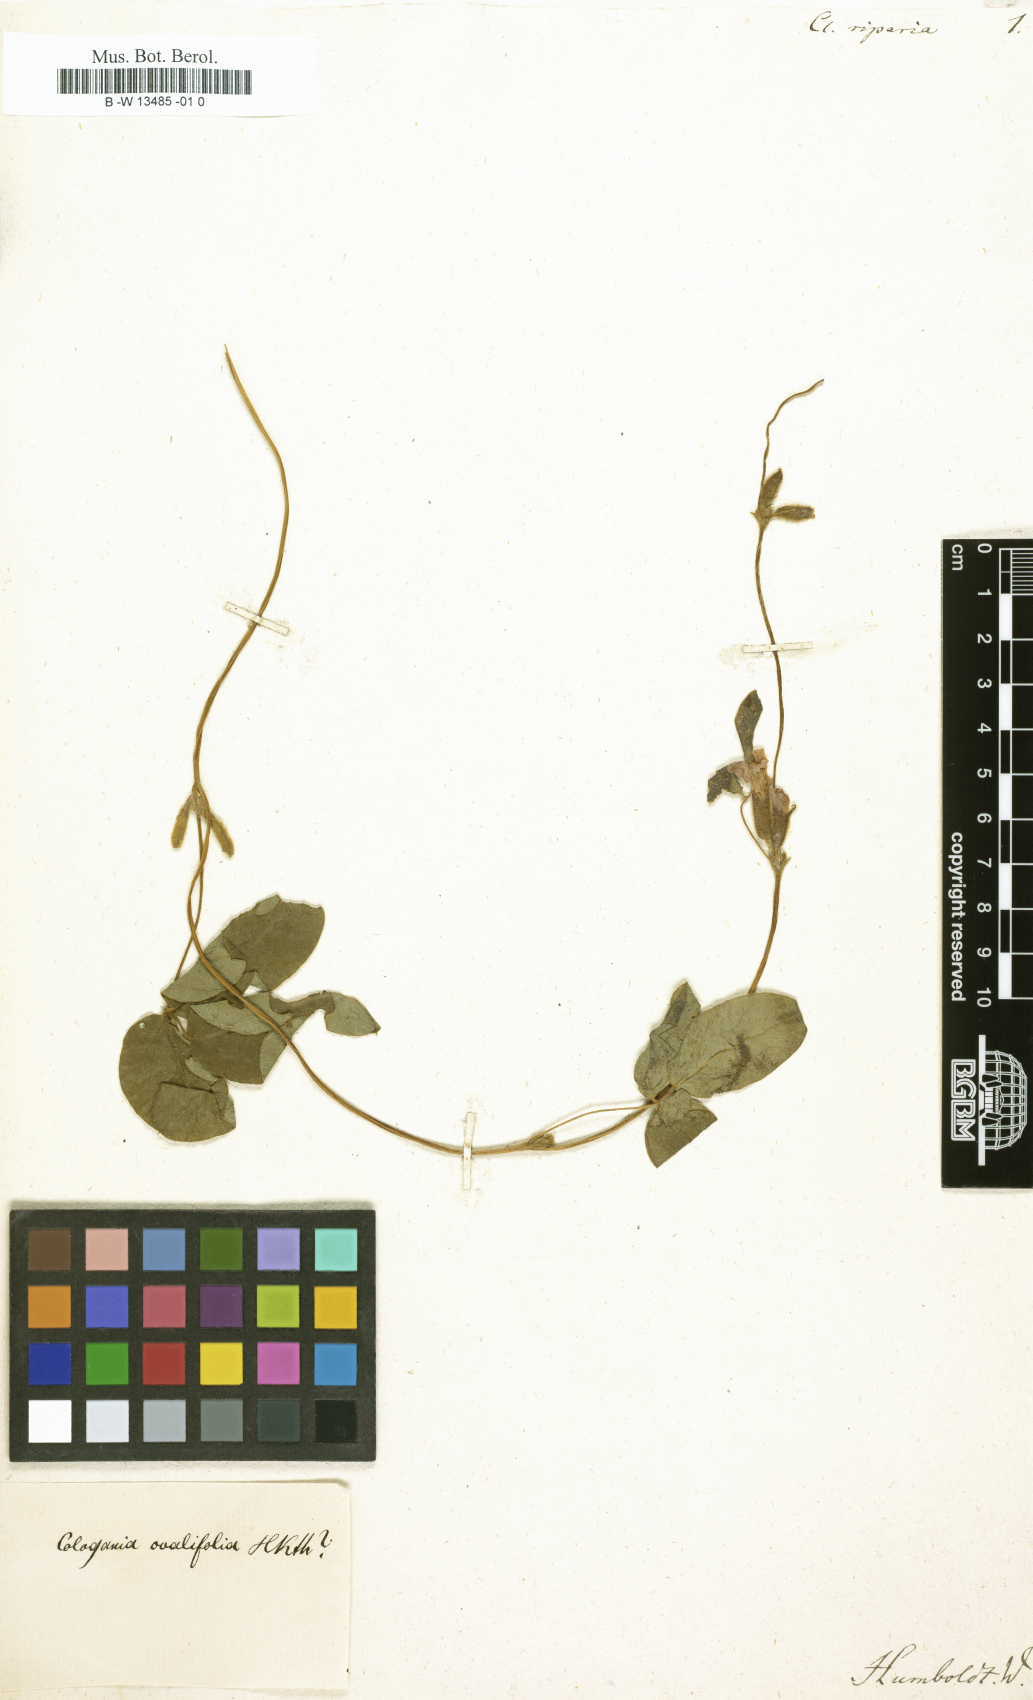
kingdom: Plantae
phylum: Tracheophyta
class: Magnoliopsida
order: Fabales
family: Fabaceae
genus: Clitoria
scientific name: Clitoria
